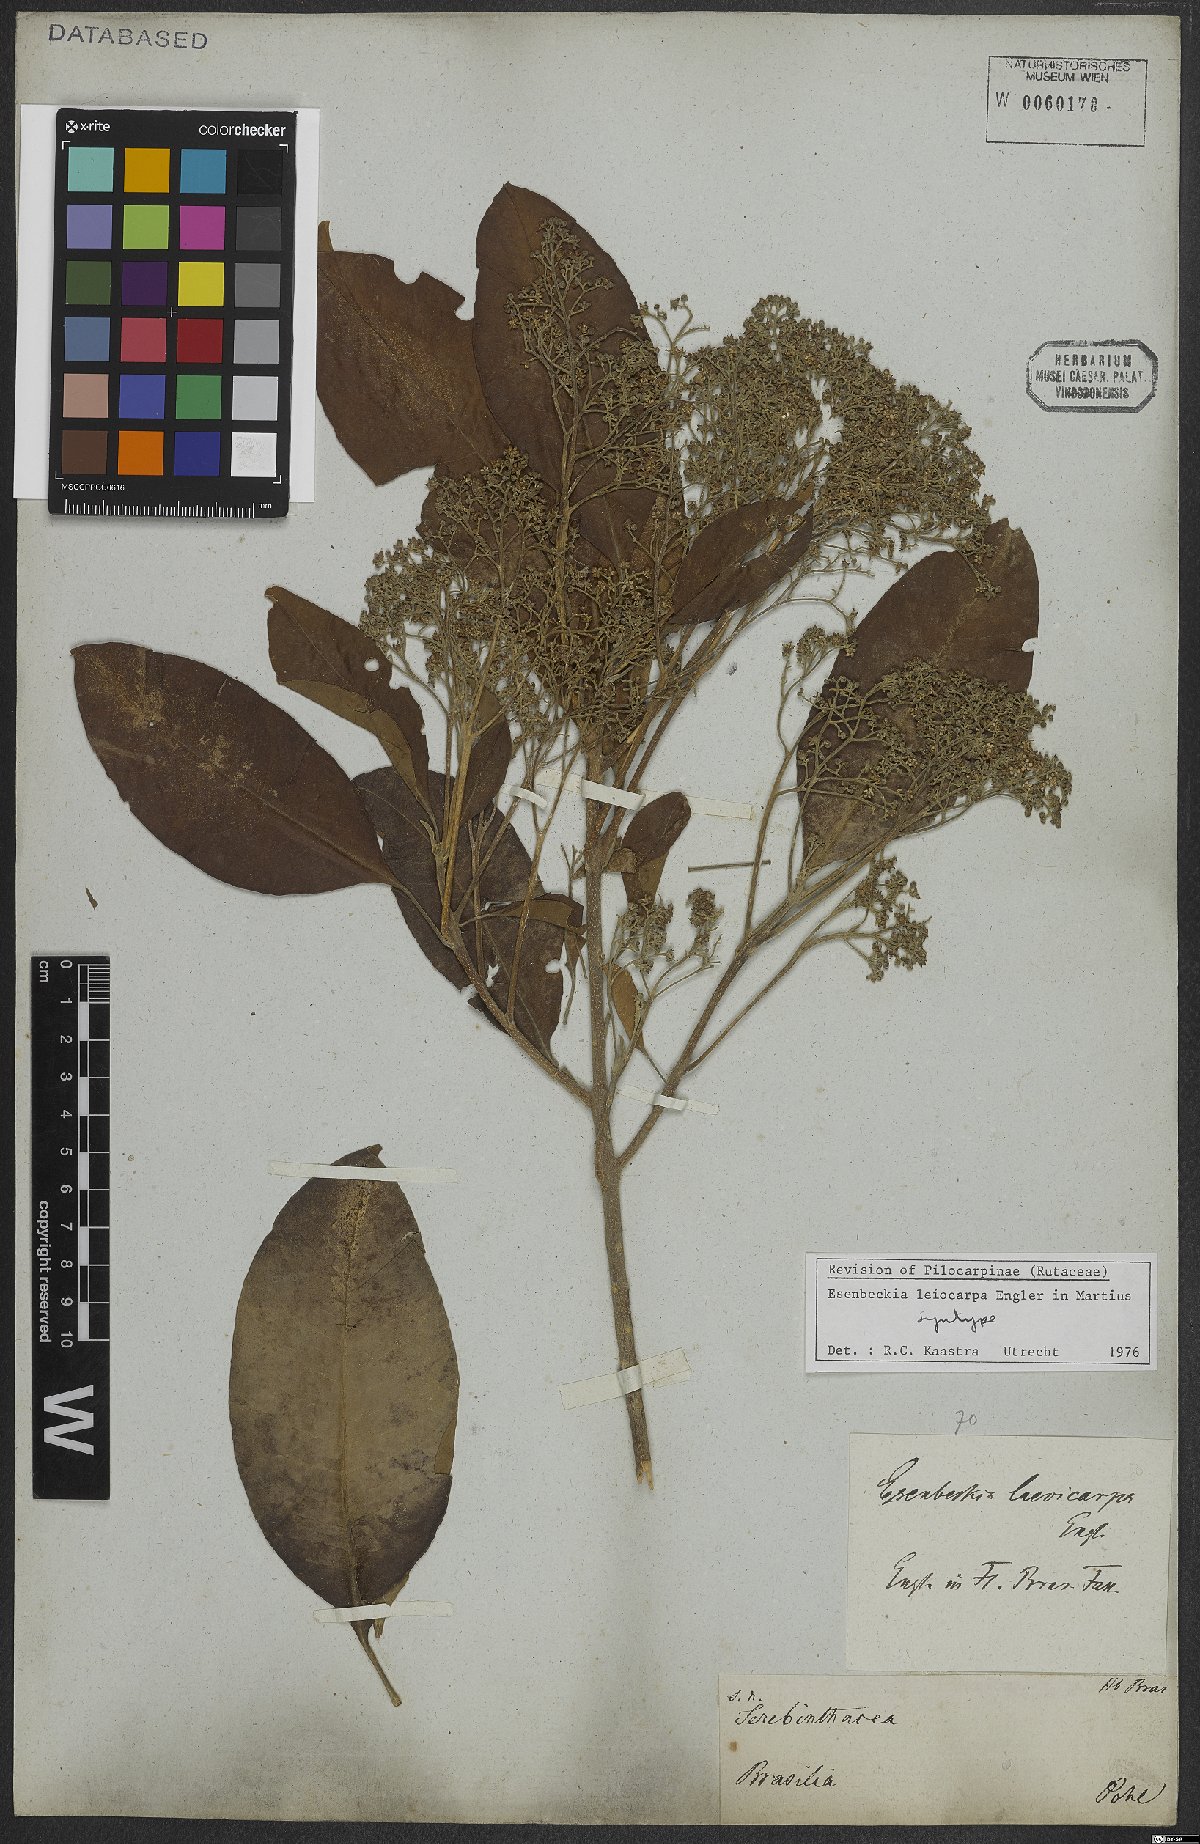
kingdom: Plantae
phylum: Tracheophyta
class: Magnoliopsida
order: Sapindales
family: Rutaceae
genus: Esenbeckia
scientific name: Esenbeckia leiocarpa
